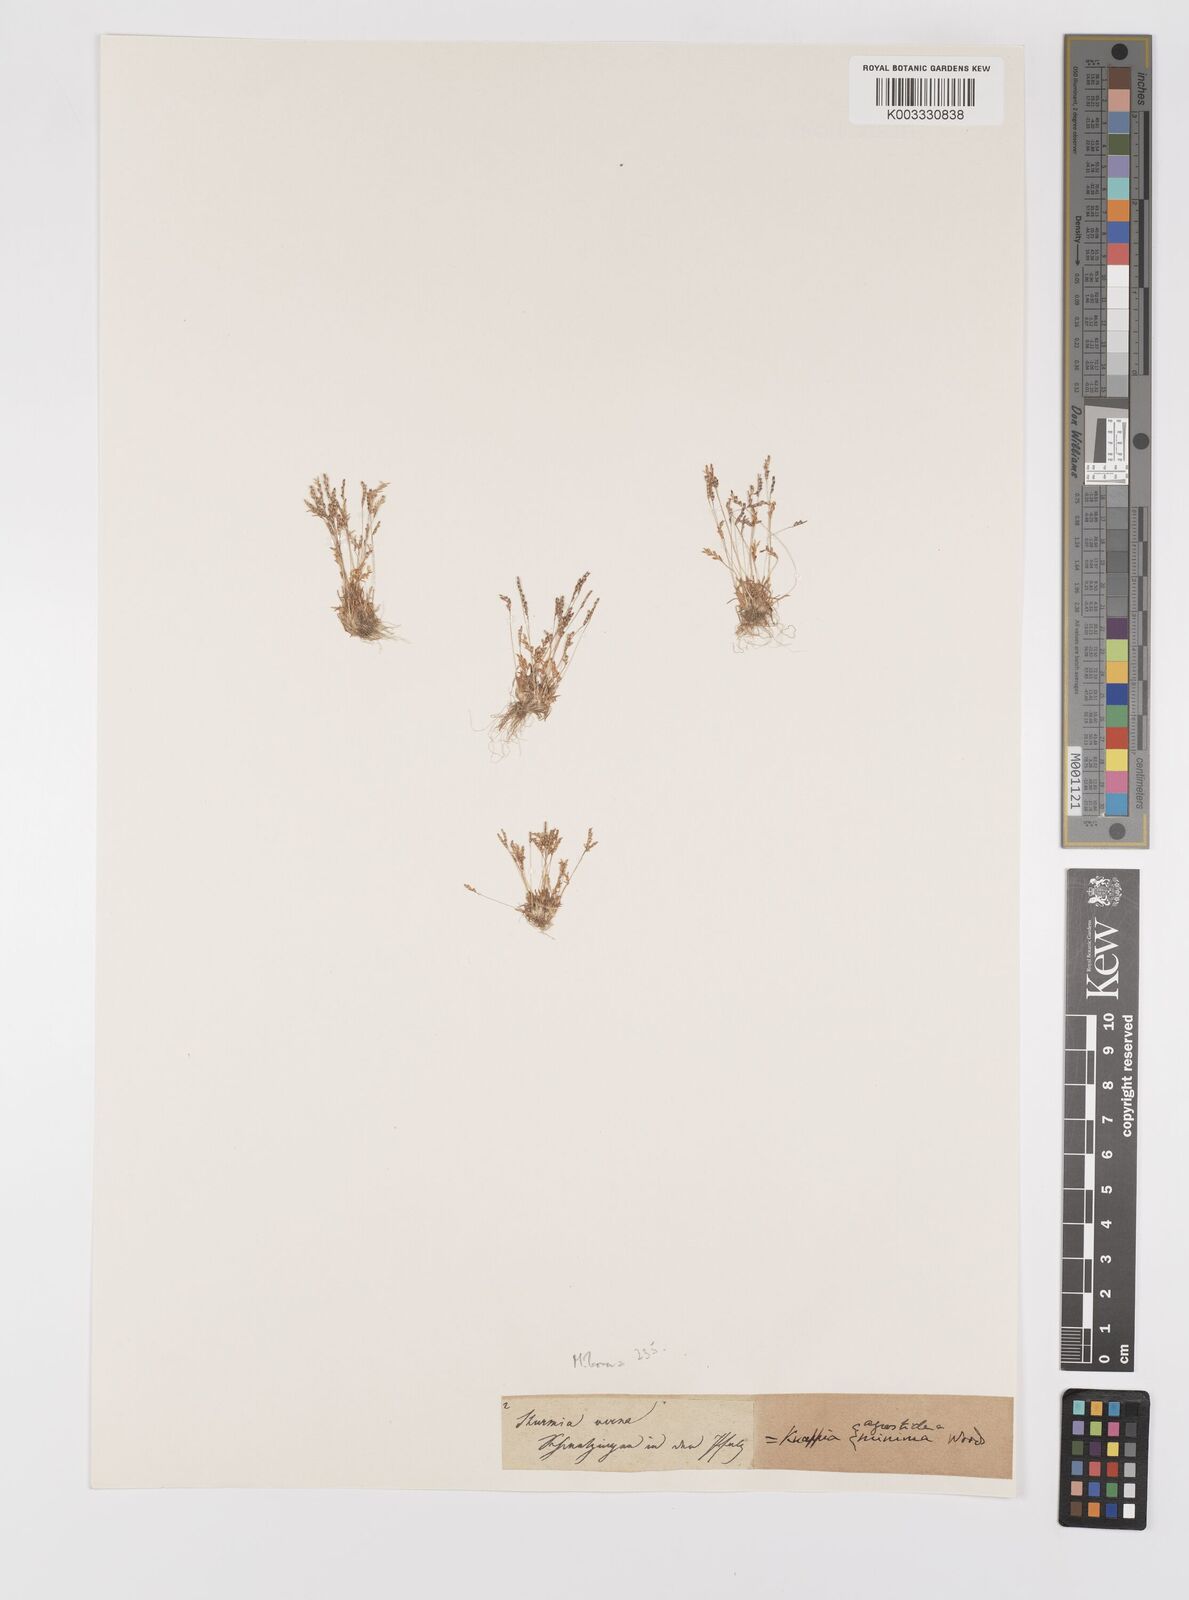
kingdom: Plantae
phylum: Tracheophyta
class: Liliopsida
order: Poales
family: Poaceae
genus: Mibora
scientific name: Mibora minima
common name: Early sand-grass
